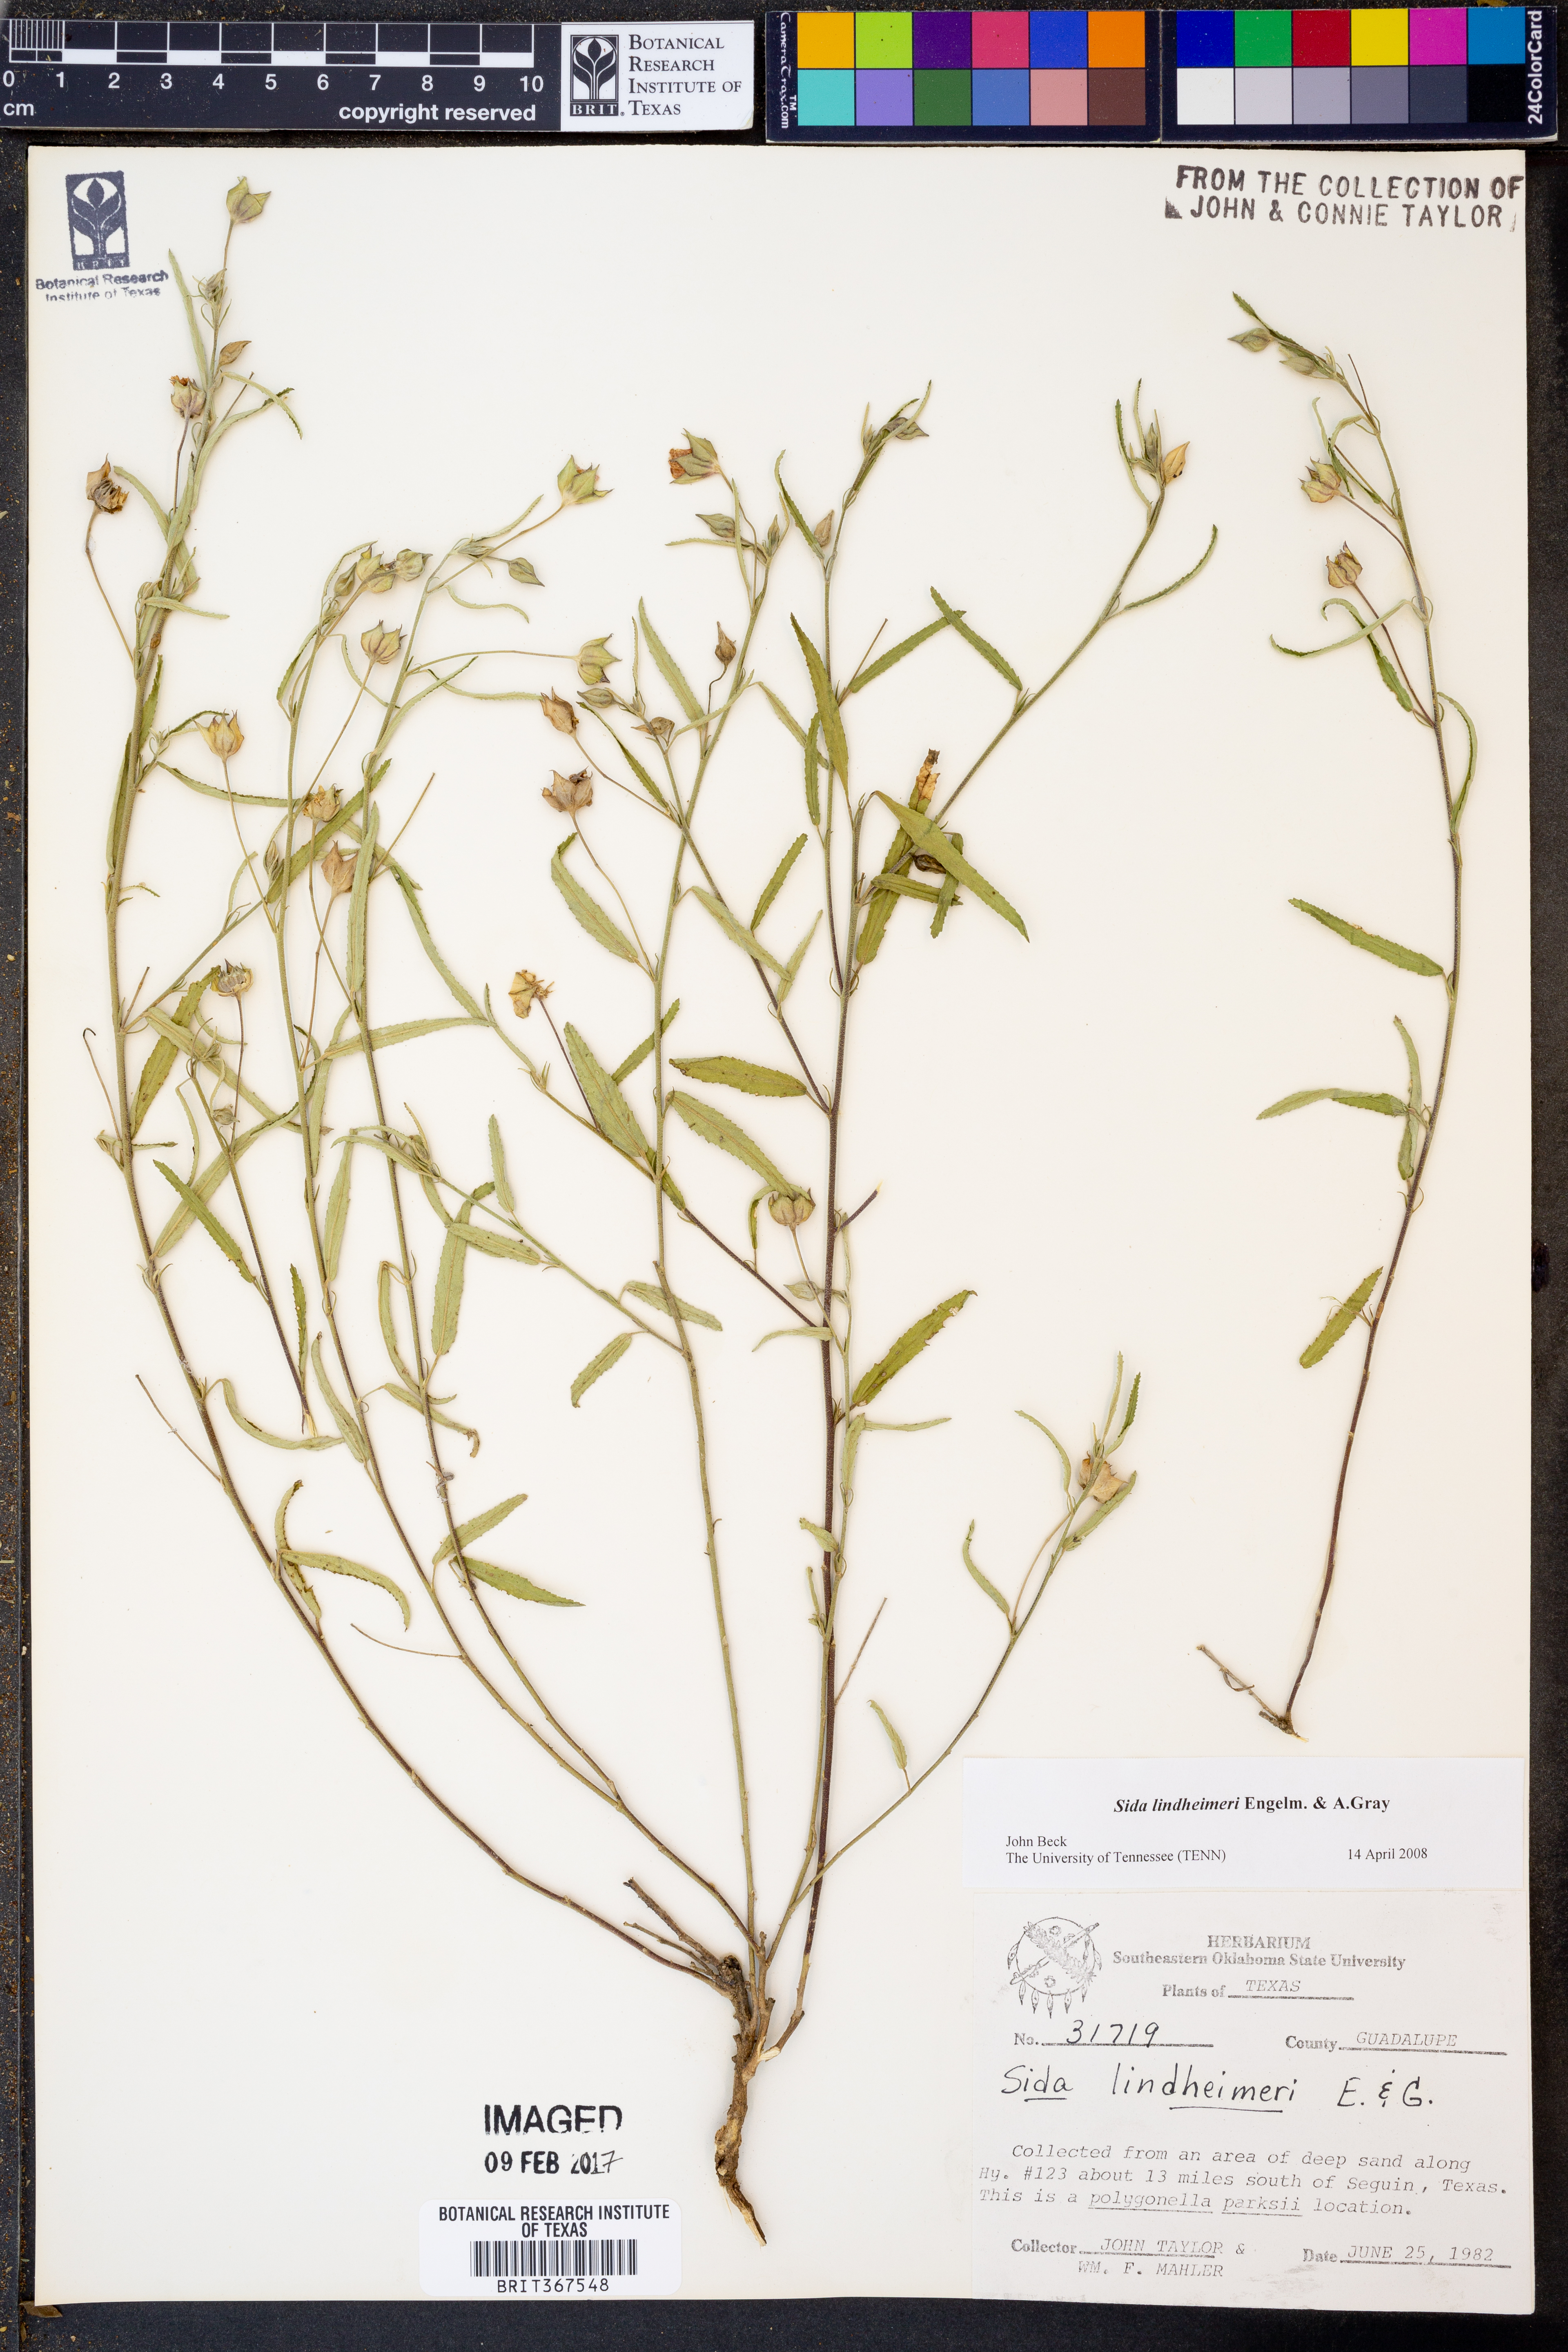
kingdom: Plantae
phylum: Tracheophyta
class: Magnoliopsida
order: Malvales
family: Malvaceae
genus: Sida
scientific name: Sida lindheimeri
